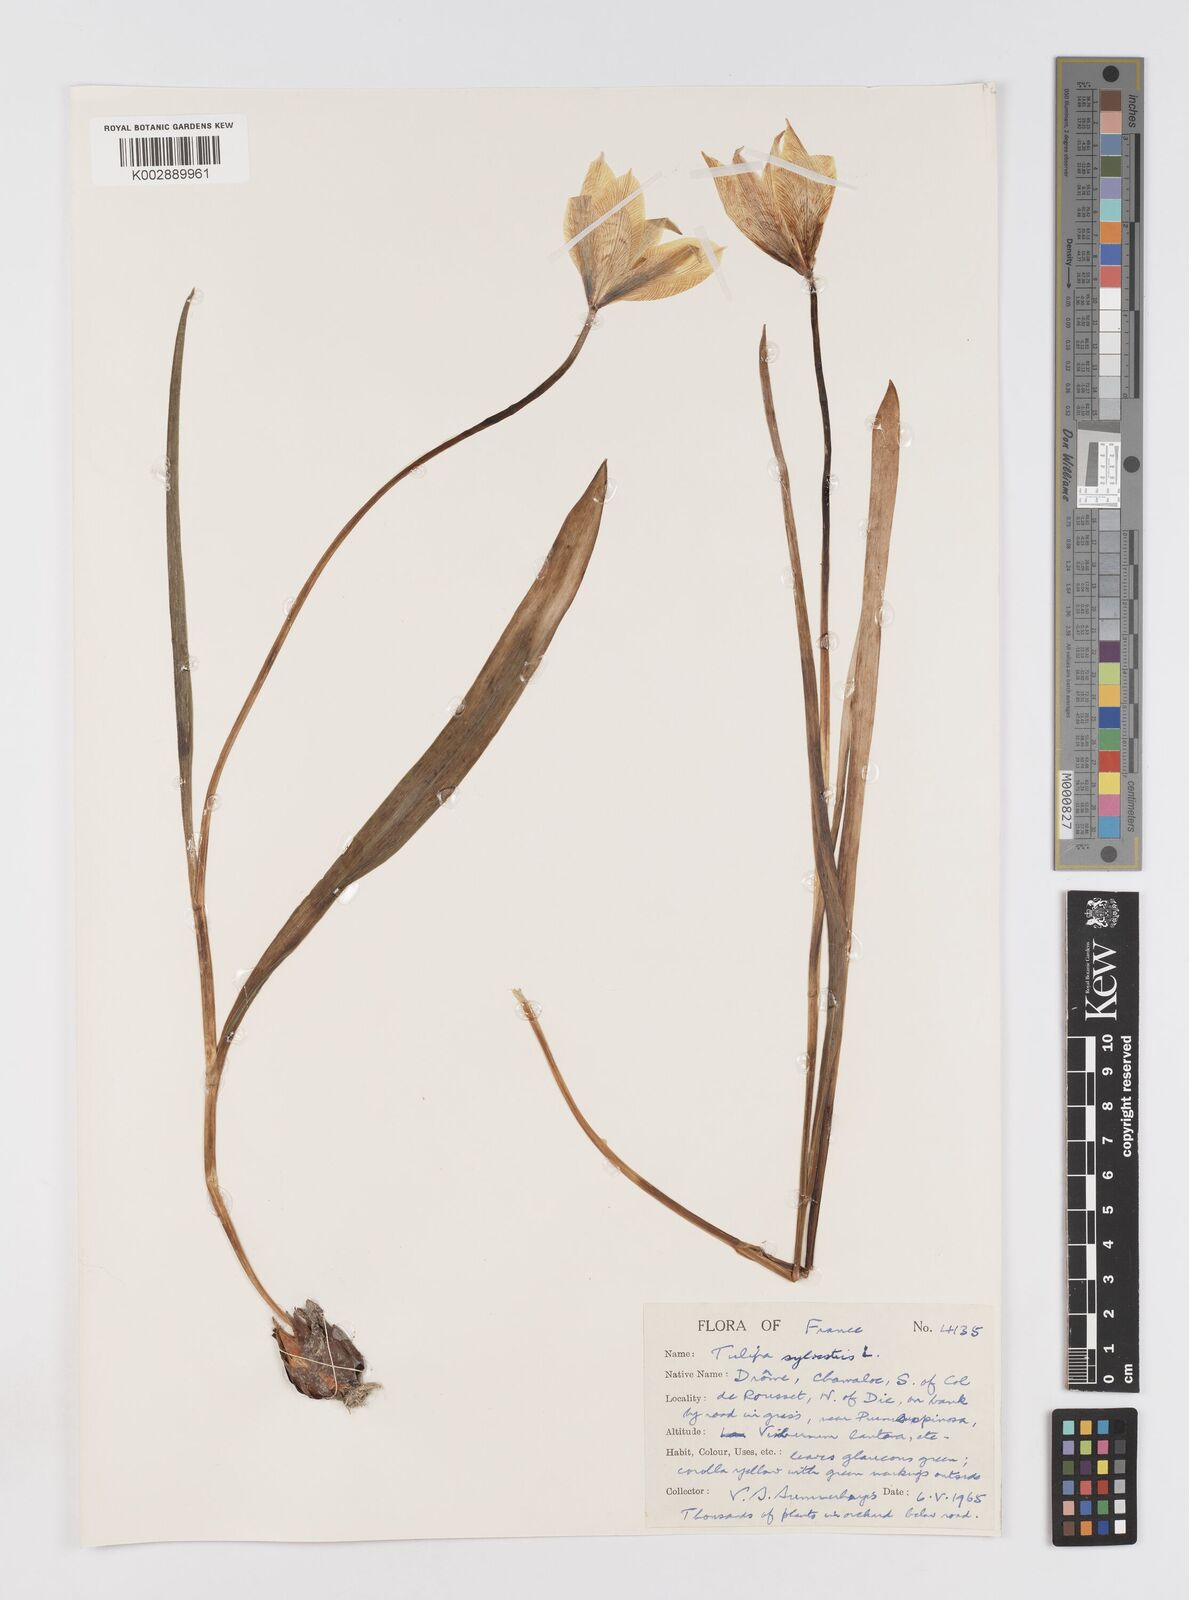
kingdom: Plantae
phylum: Tracheophyta
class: Liliopsida
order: Liliales
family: Liliaceae
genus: Tulipa
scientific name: Tulipa sylvestris
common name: Wild tulip
